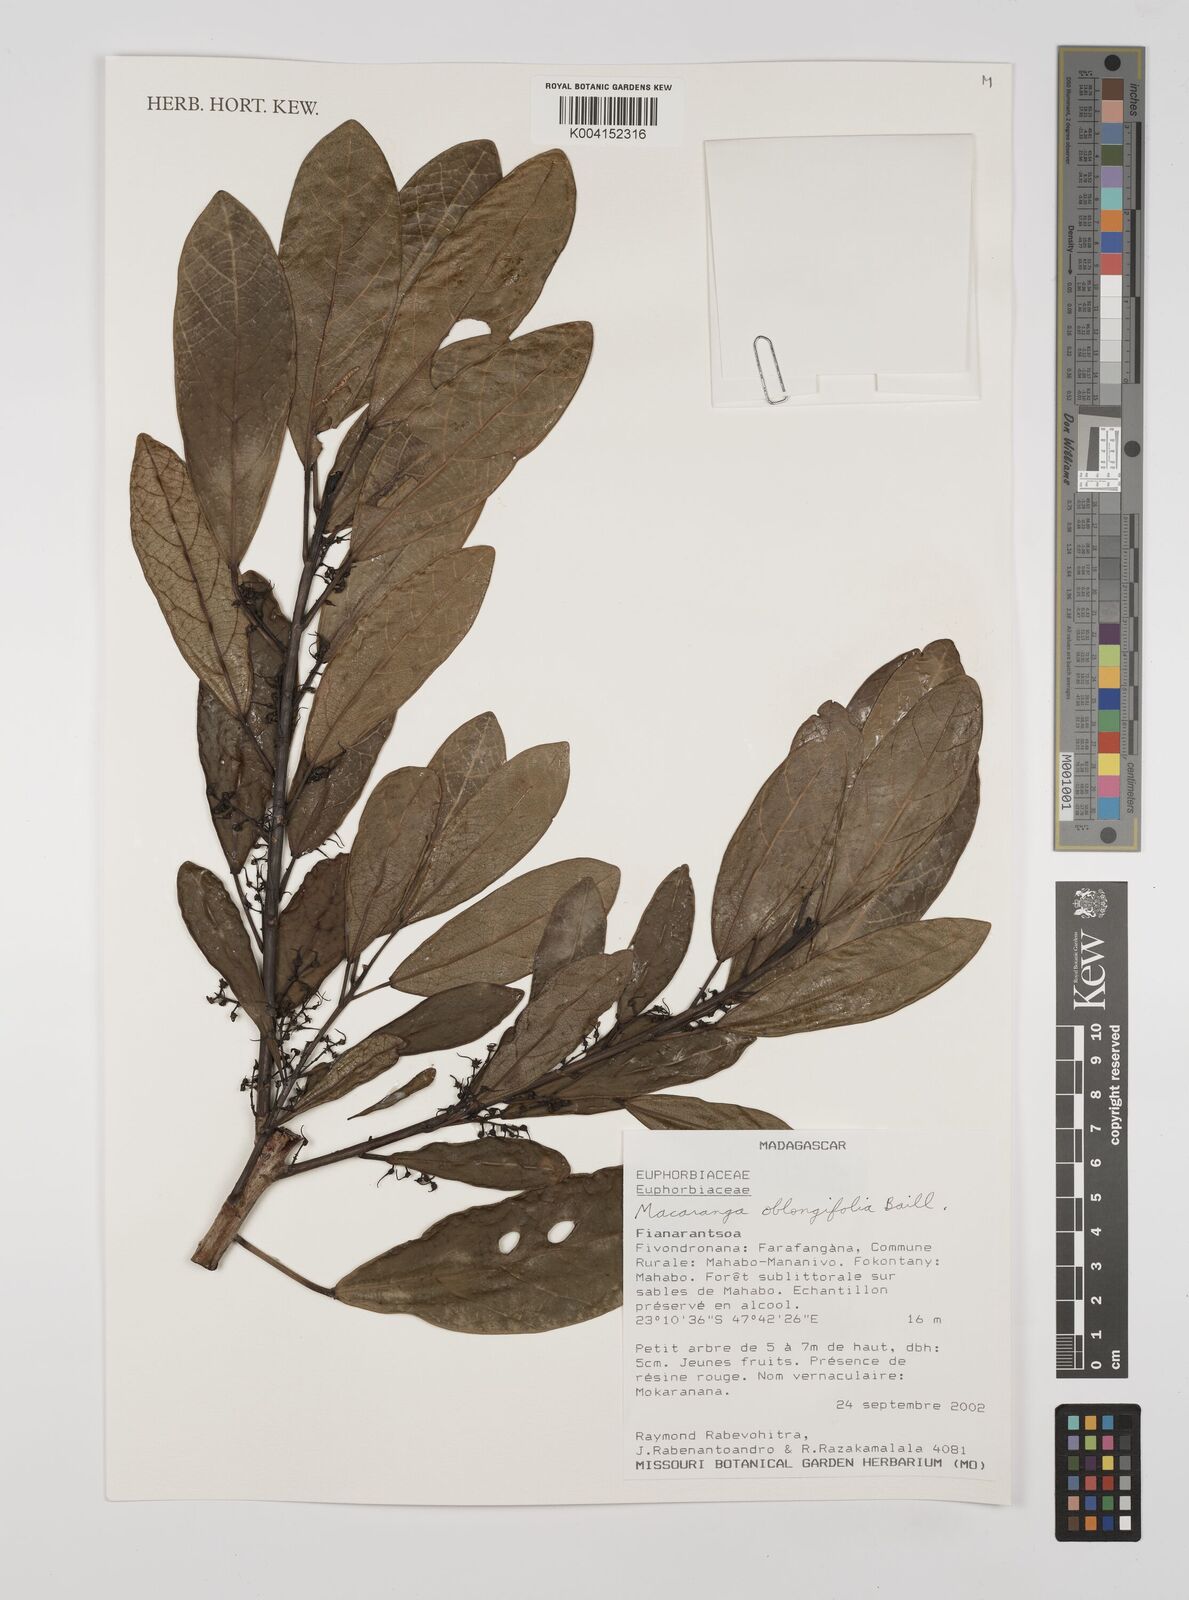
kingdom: Plantae
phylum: Tracheophyta
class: Magnoliopsida
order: Malpighiales
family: Euphorbiaceae
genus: Macaranga
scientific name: Macaranga oblongifolia
